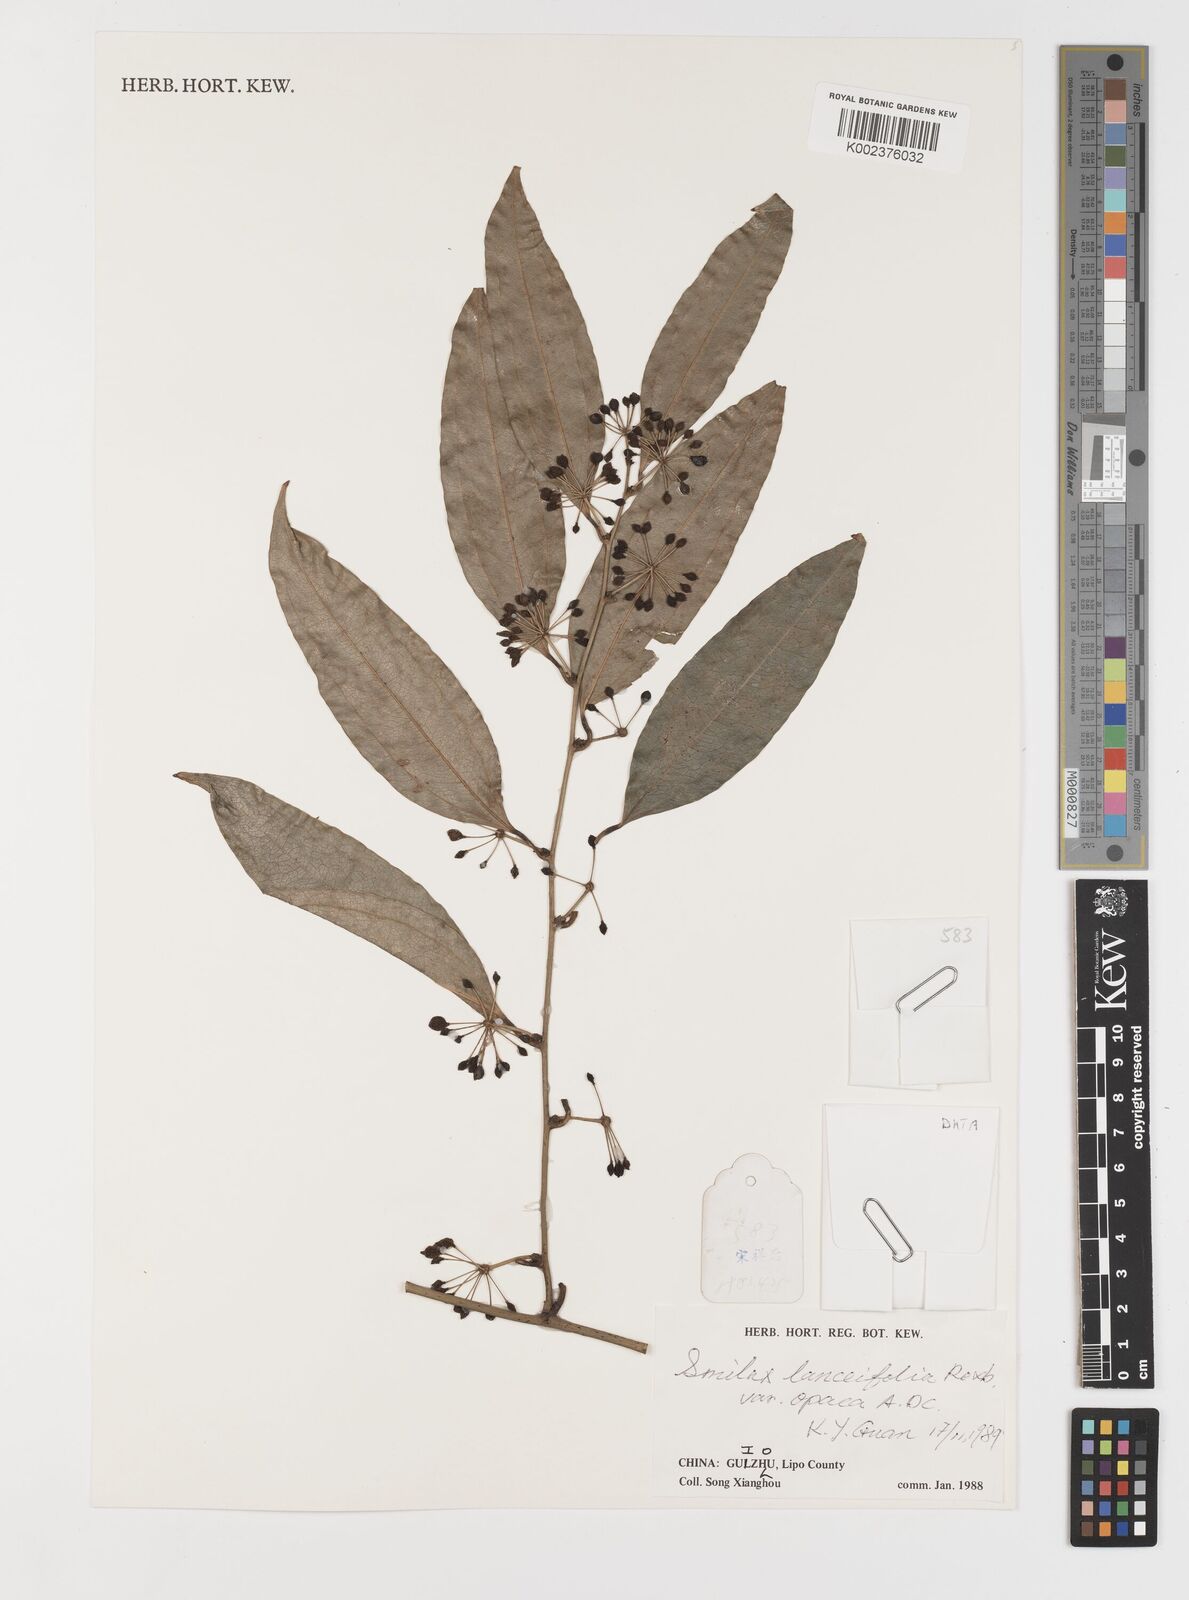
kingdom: Plantae
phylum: Tracheophyta
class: Liliopsida
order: Liliales
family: Smilacaceae
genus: Smilax
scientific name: Smilax laevis
